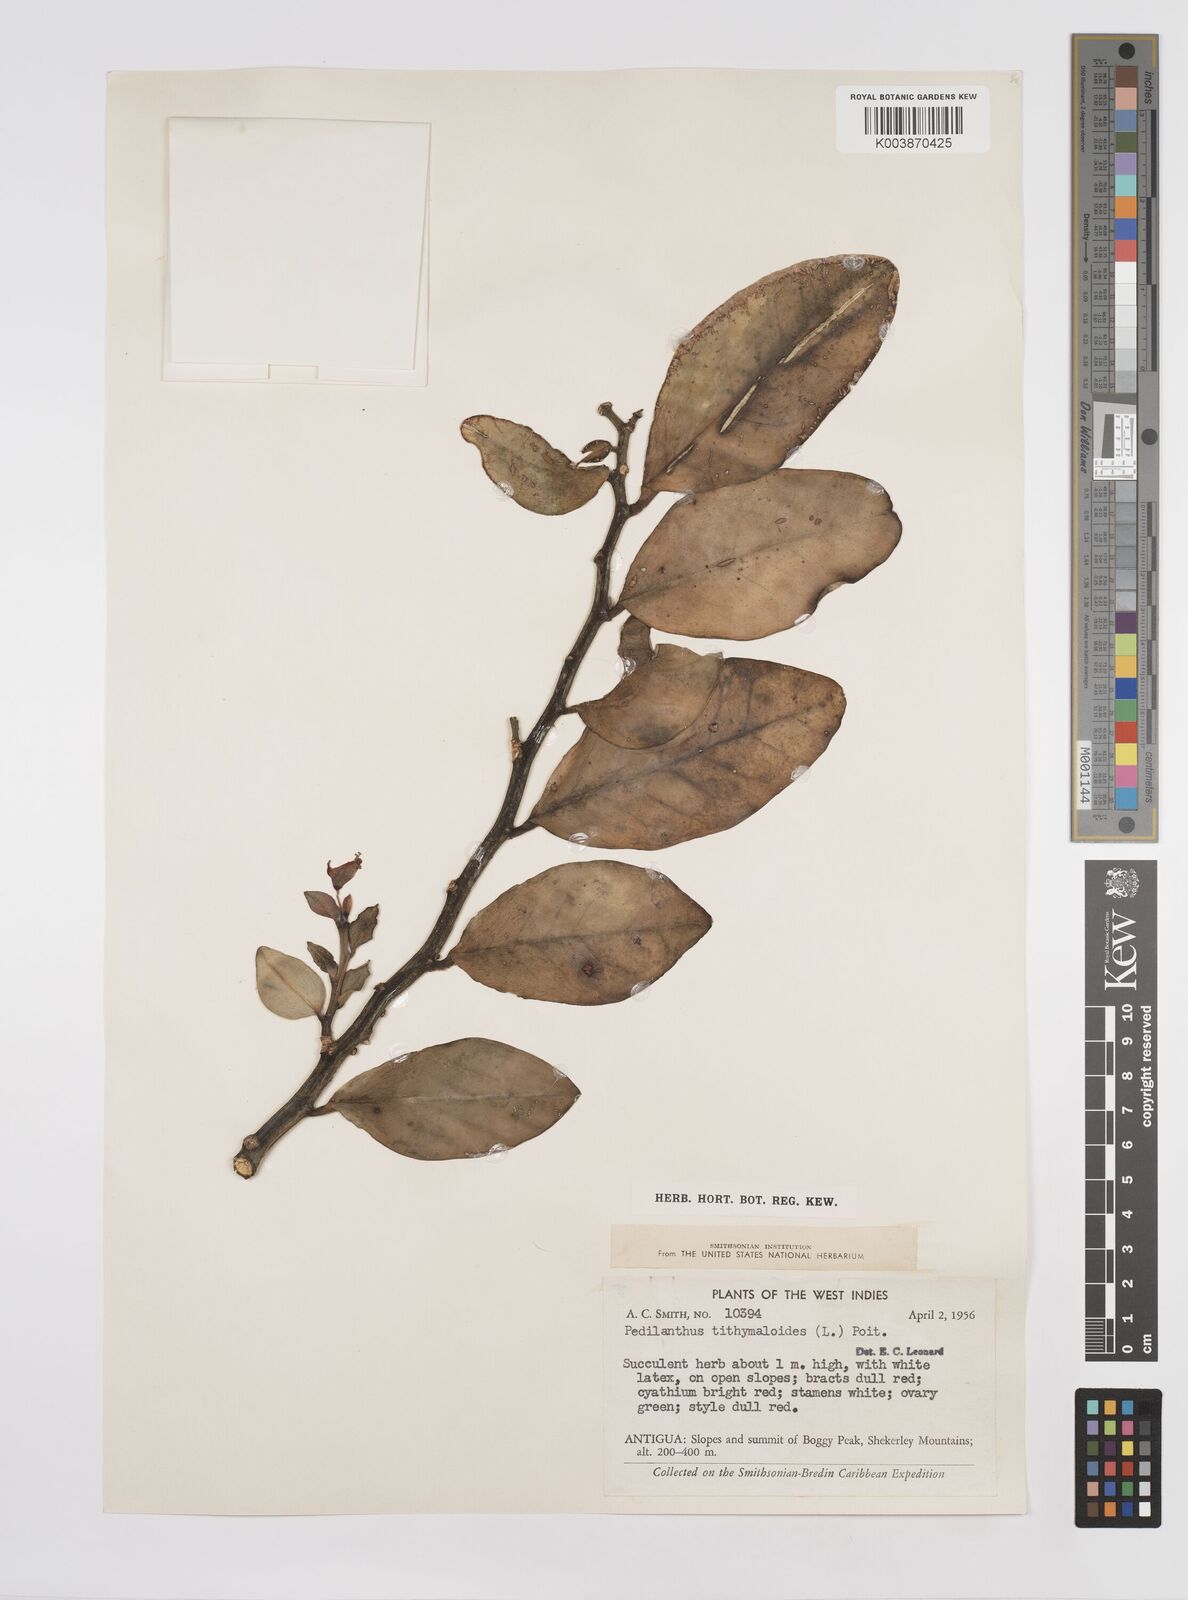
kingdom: Plantae
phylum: Tracheophyta
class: Magnoliopsida
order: Malpighiales
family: Euphorbiaceae
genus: Euphorbia
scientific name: Euphorbia tithymaloides
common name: Slipperplant
